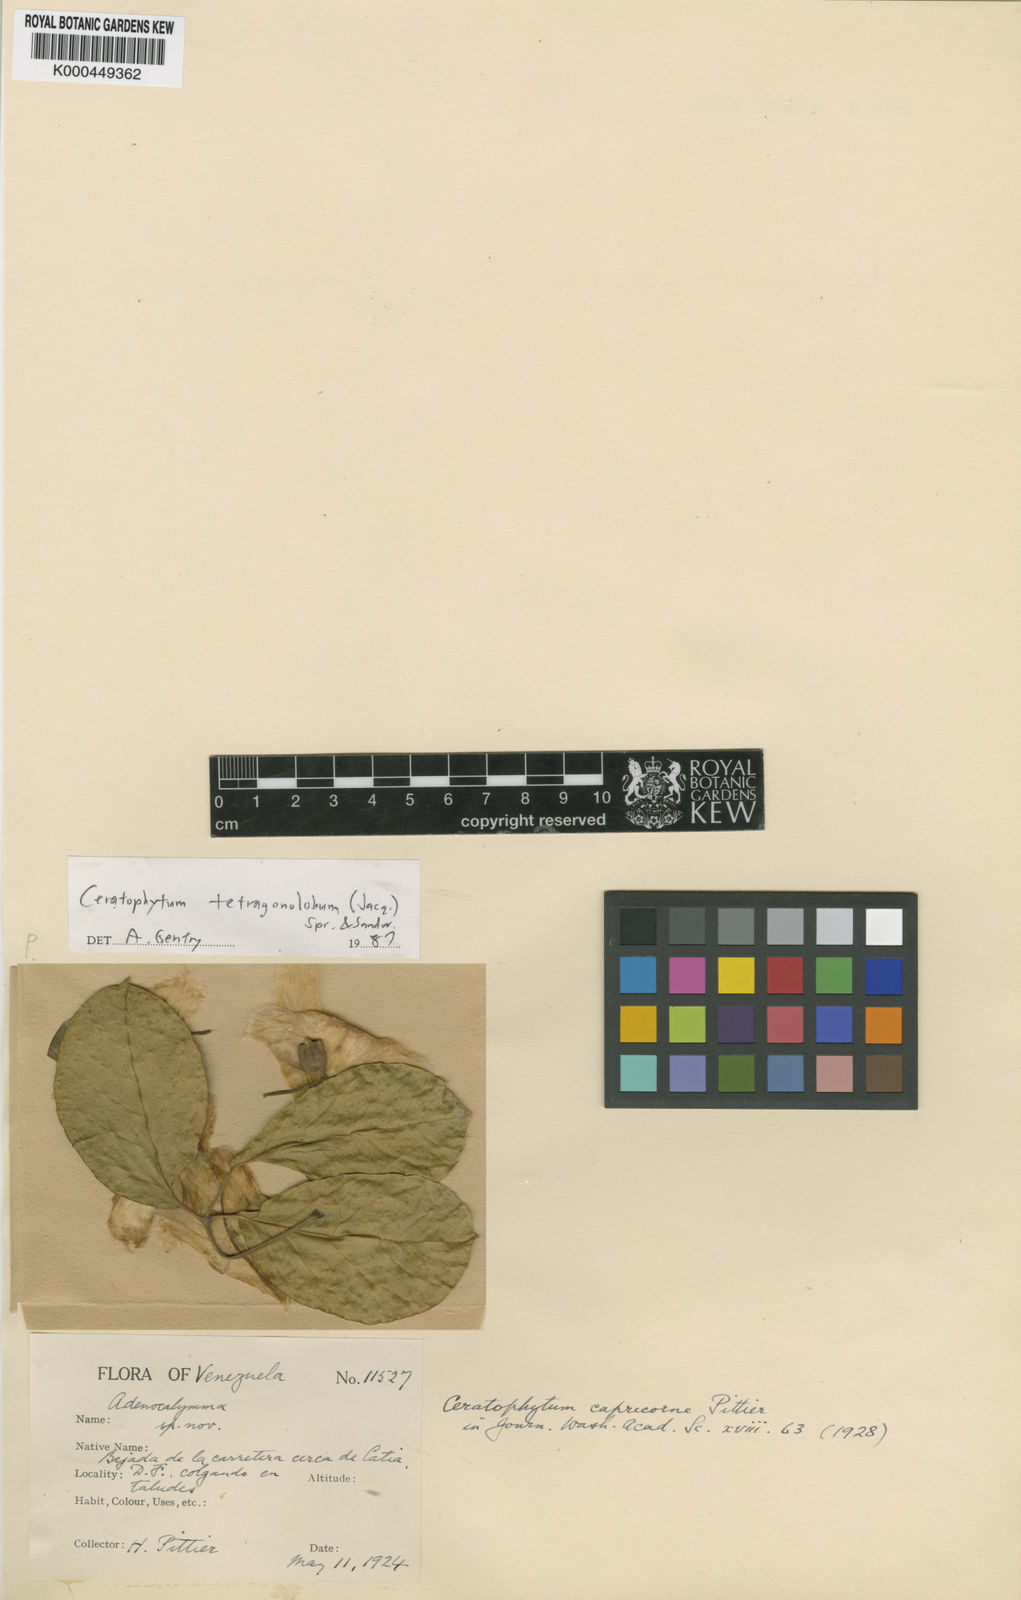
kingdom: Plantae
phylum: Tracheophyta
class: Magnoliopsida
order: Lamiales
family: Bignoniaceae
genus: Tanaecium
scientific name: Tanaecium tetragonolobum
